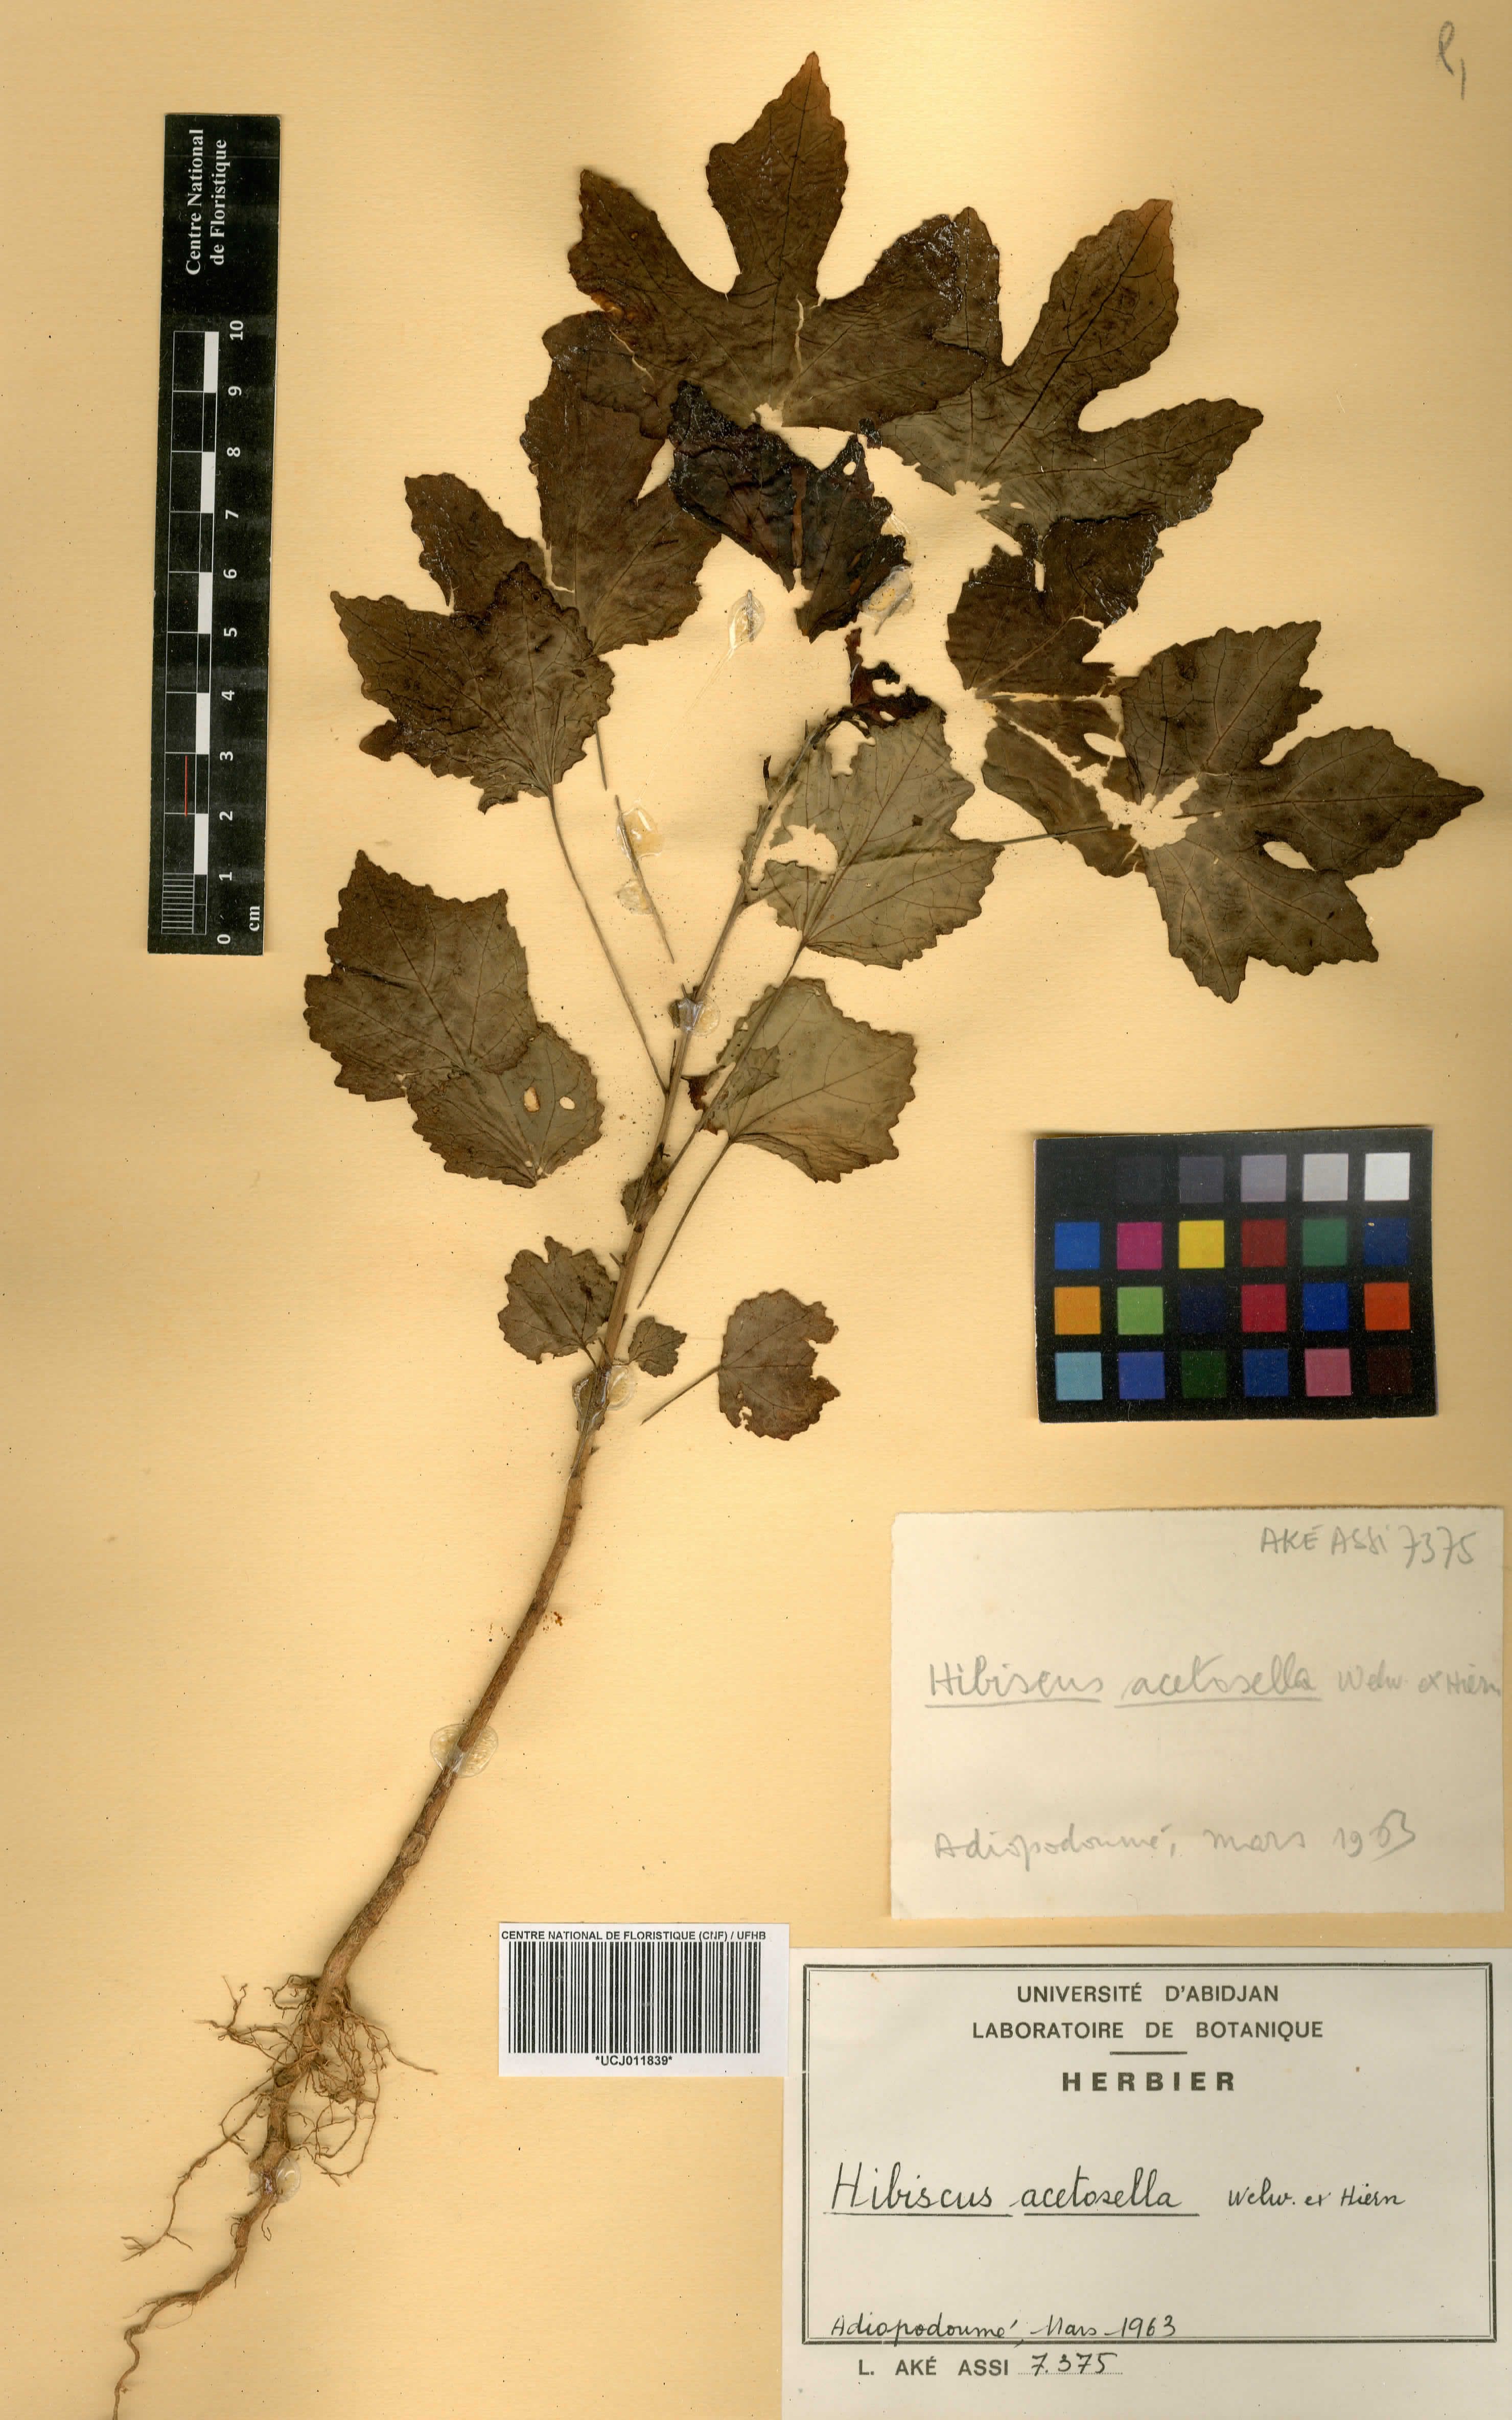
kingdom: Plantae
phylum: Tracheophyta
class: Magnoliopsida
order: Malvales
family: Malvaceae
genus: Hibiscus
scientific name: Hibiscus acetosella
